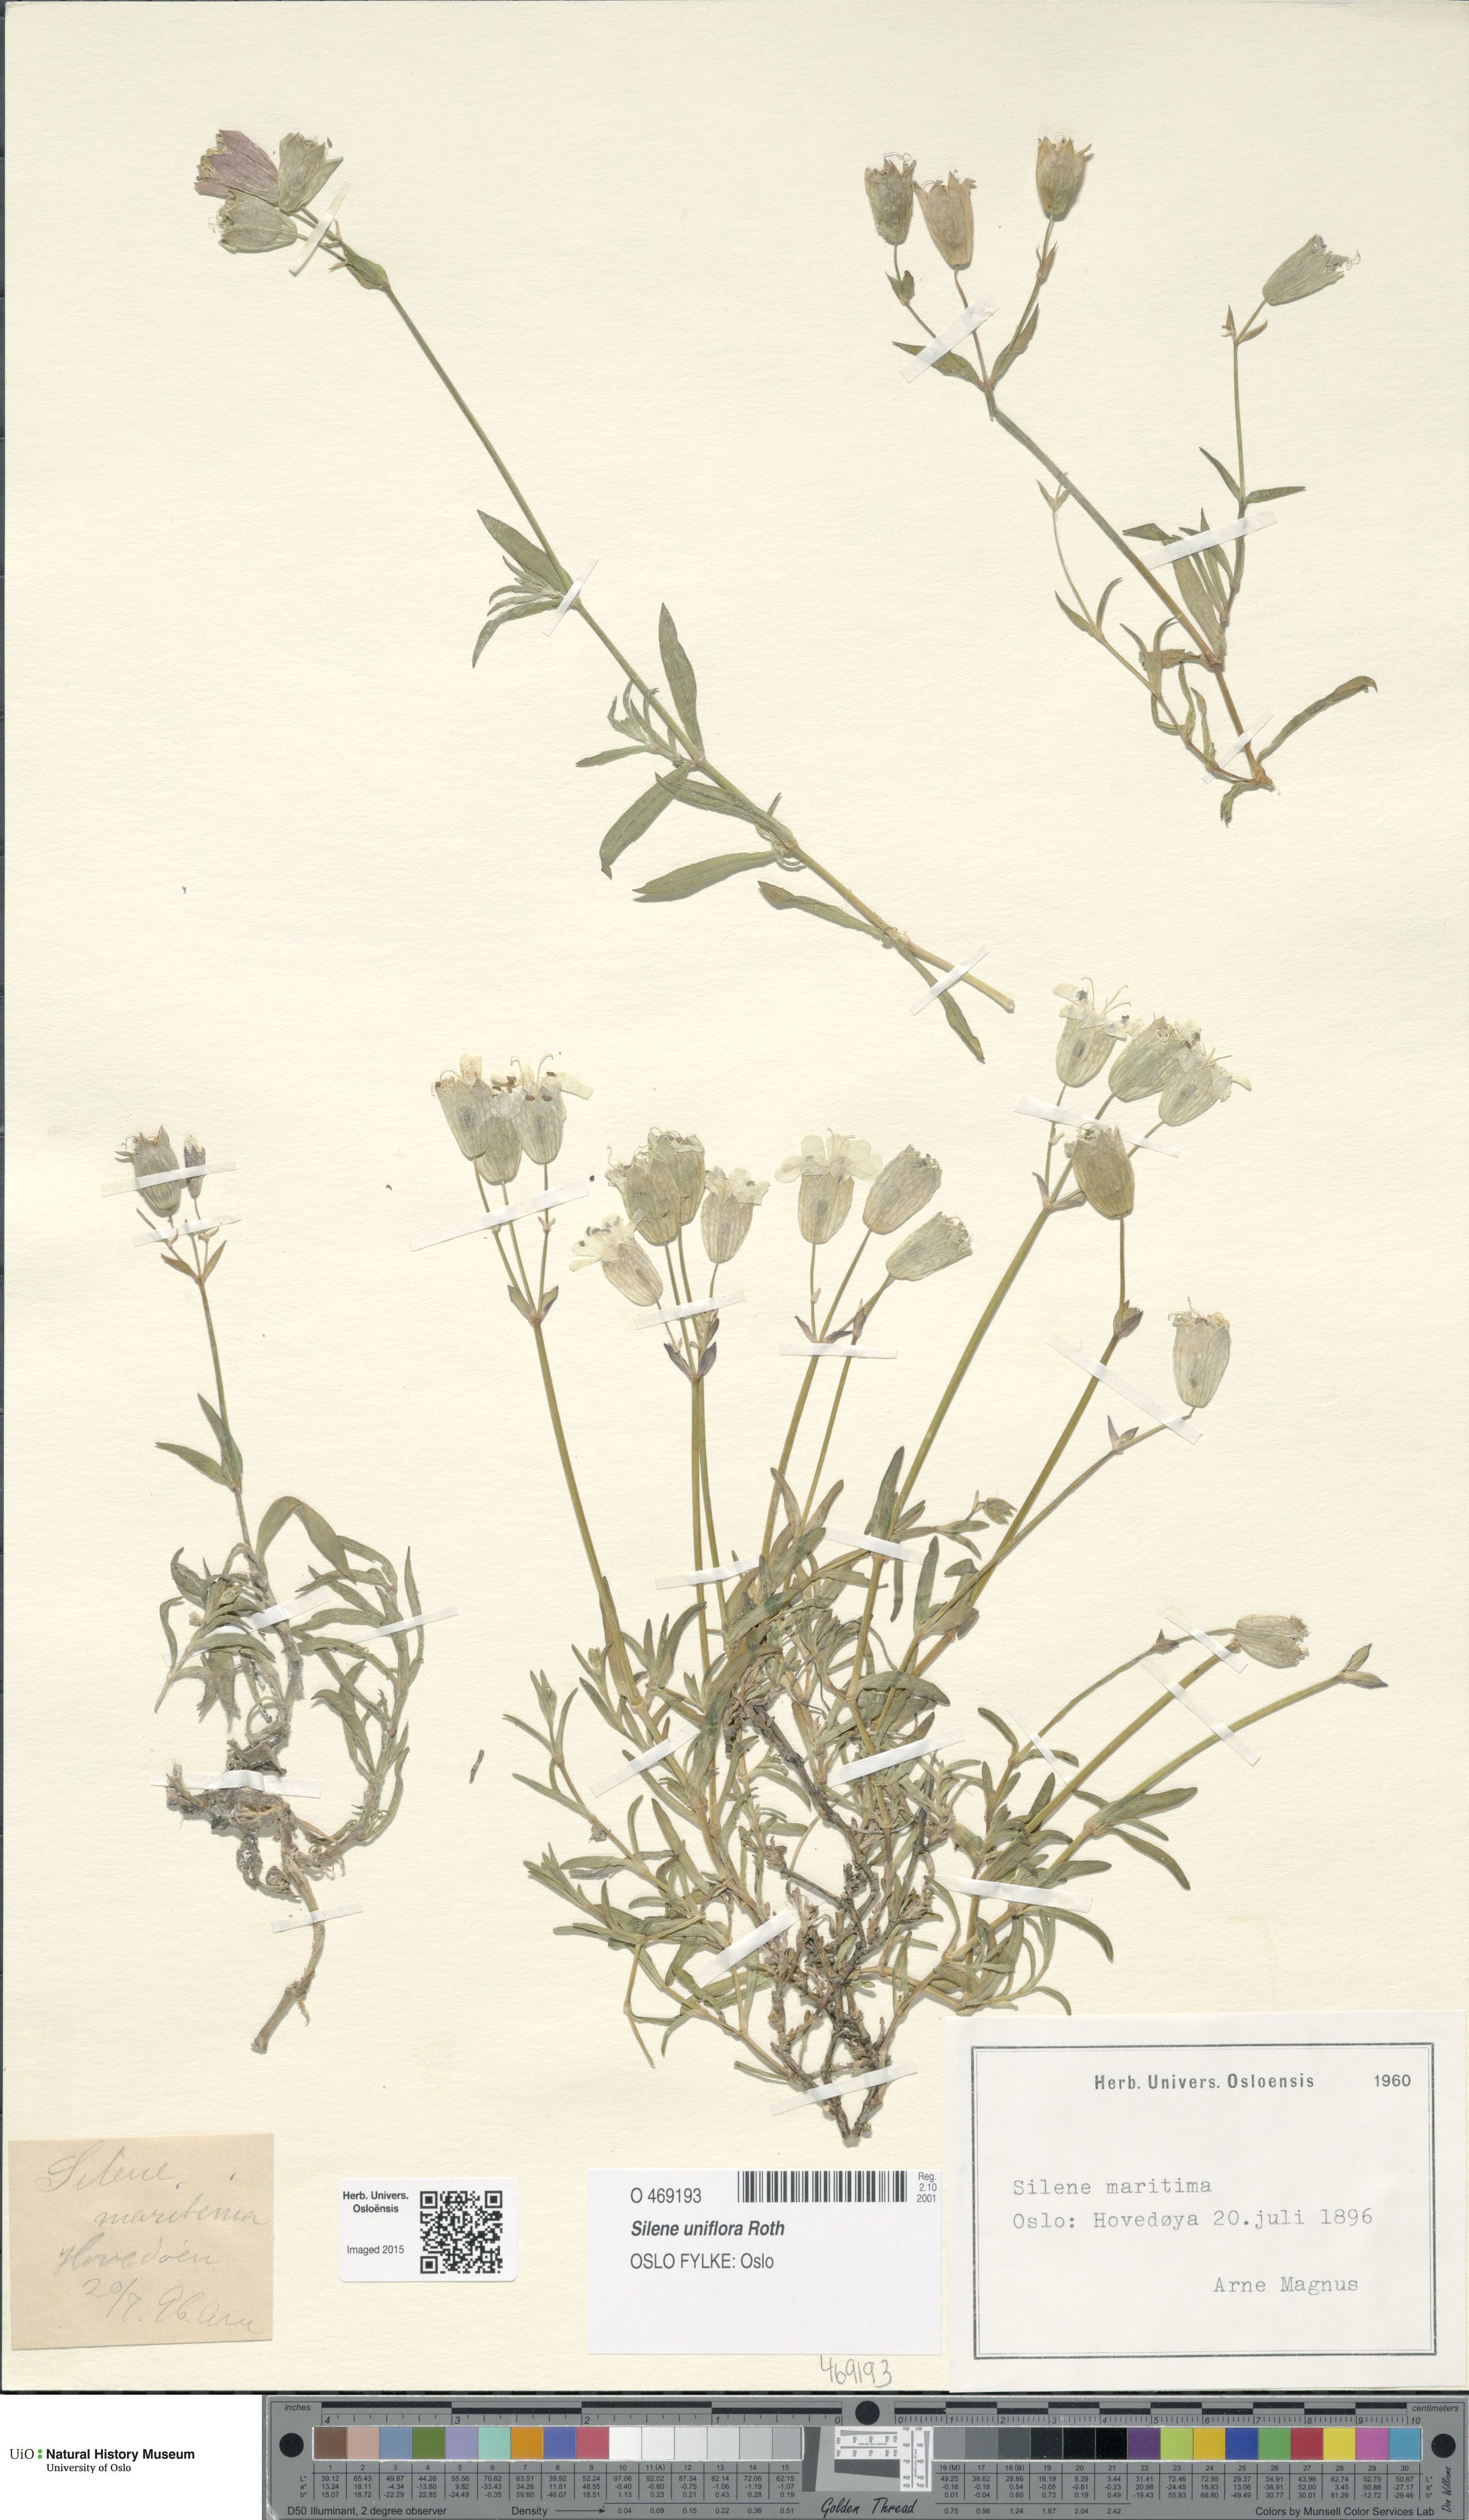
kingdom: Plantae
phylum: Tracheophyta
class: Magnoliopsida
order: Caryophyllales
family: Caryophyllaceae
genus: Silene
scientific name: Silene uniflora
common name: Sea campion
